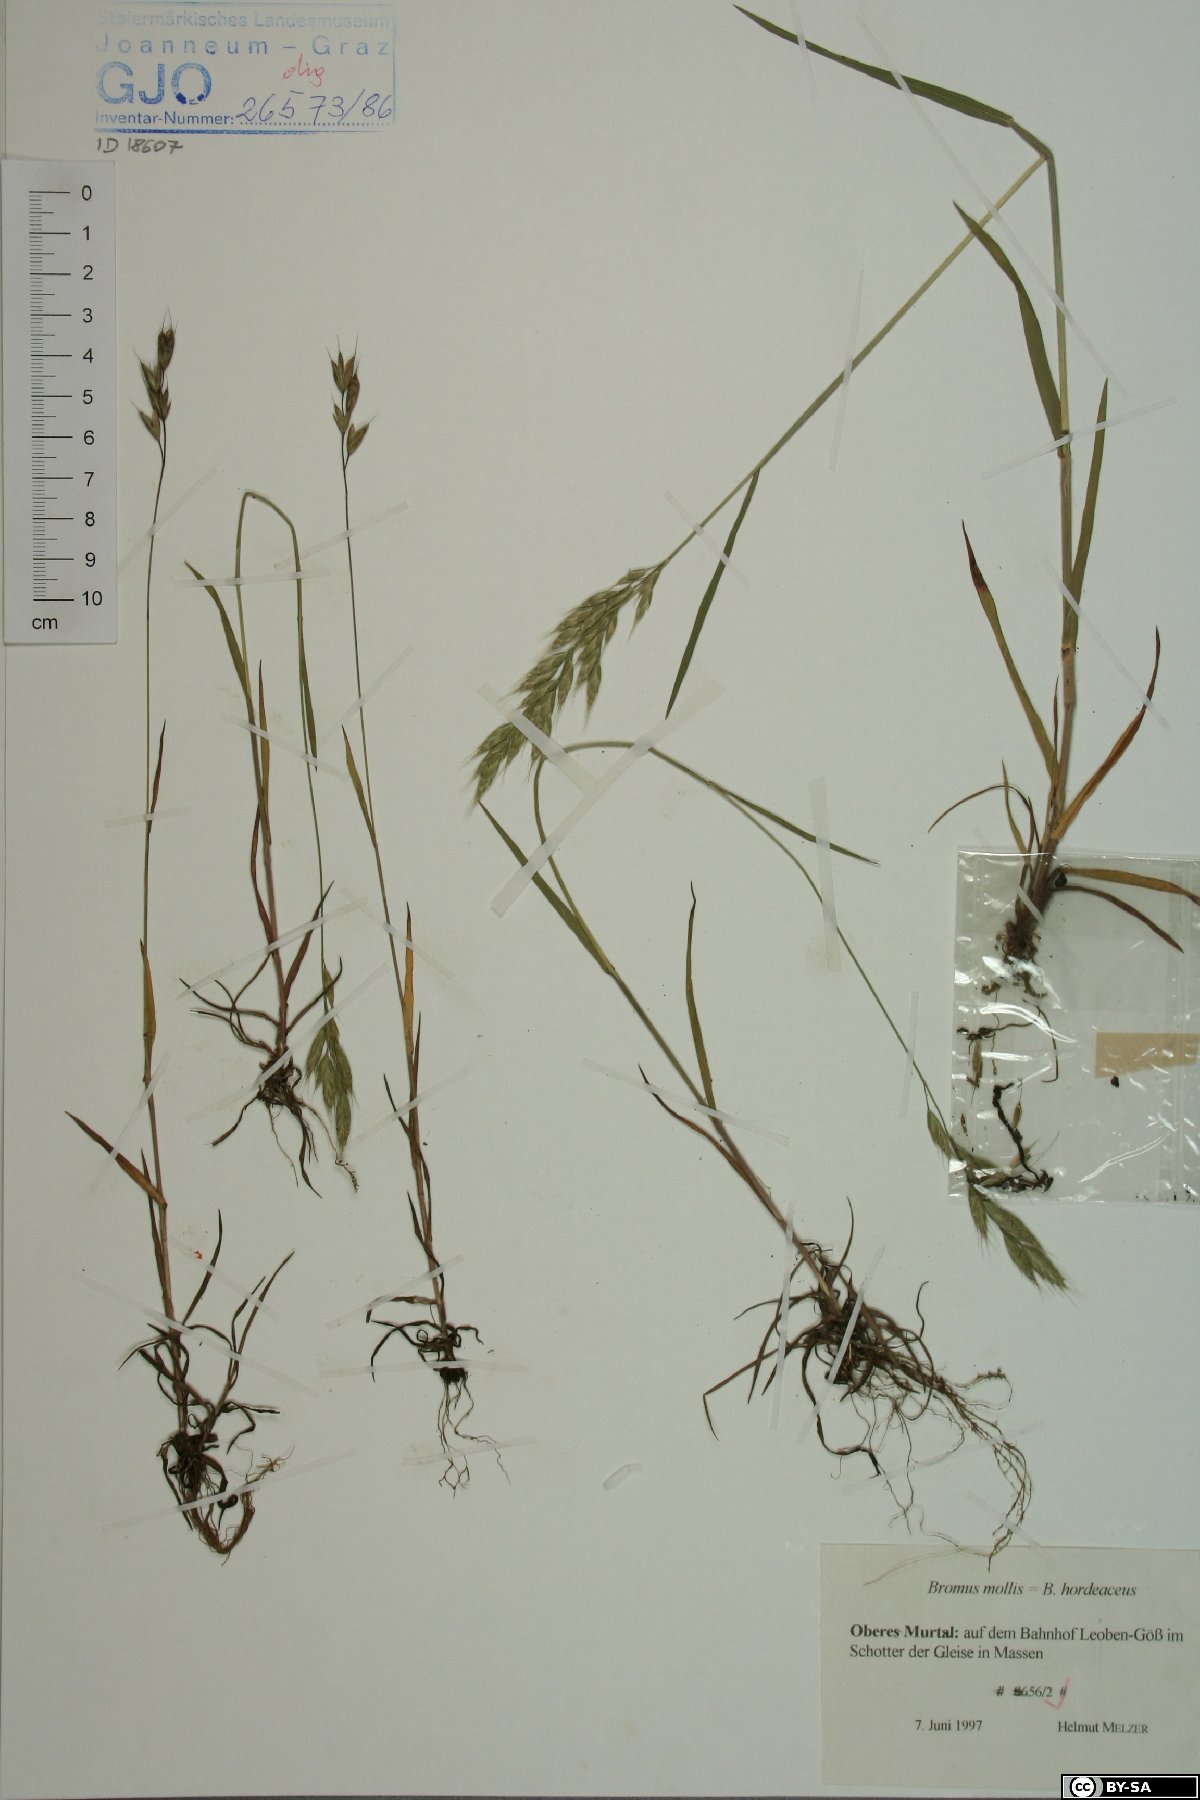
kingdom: Plantae
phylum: Tracheophyta
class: Liliopsida
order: Poales
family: Poaceae
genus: Bromus
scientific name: Bromus hordeaceus
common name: Soft brome
